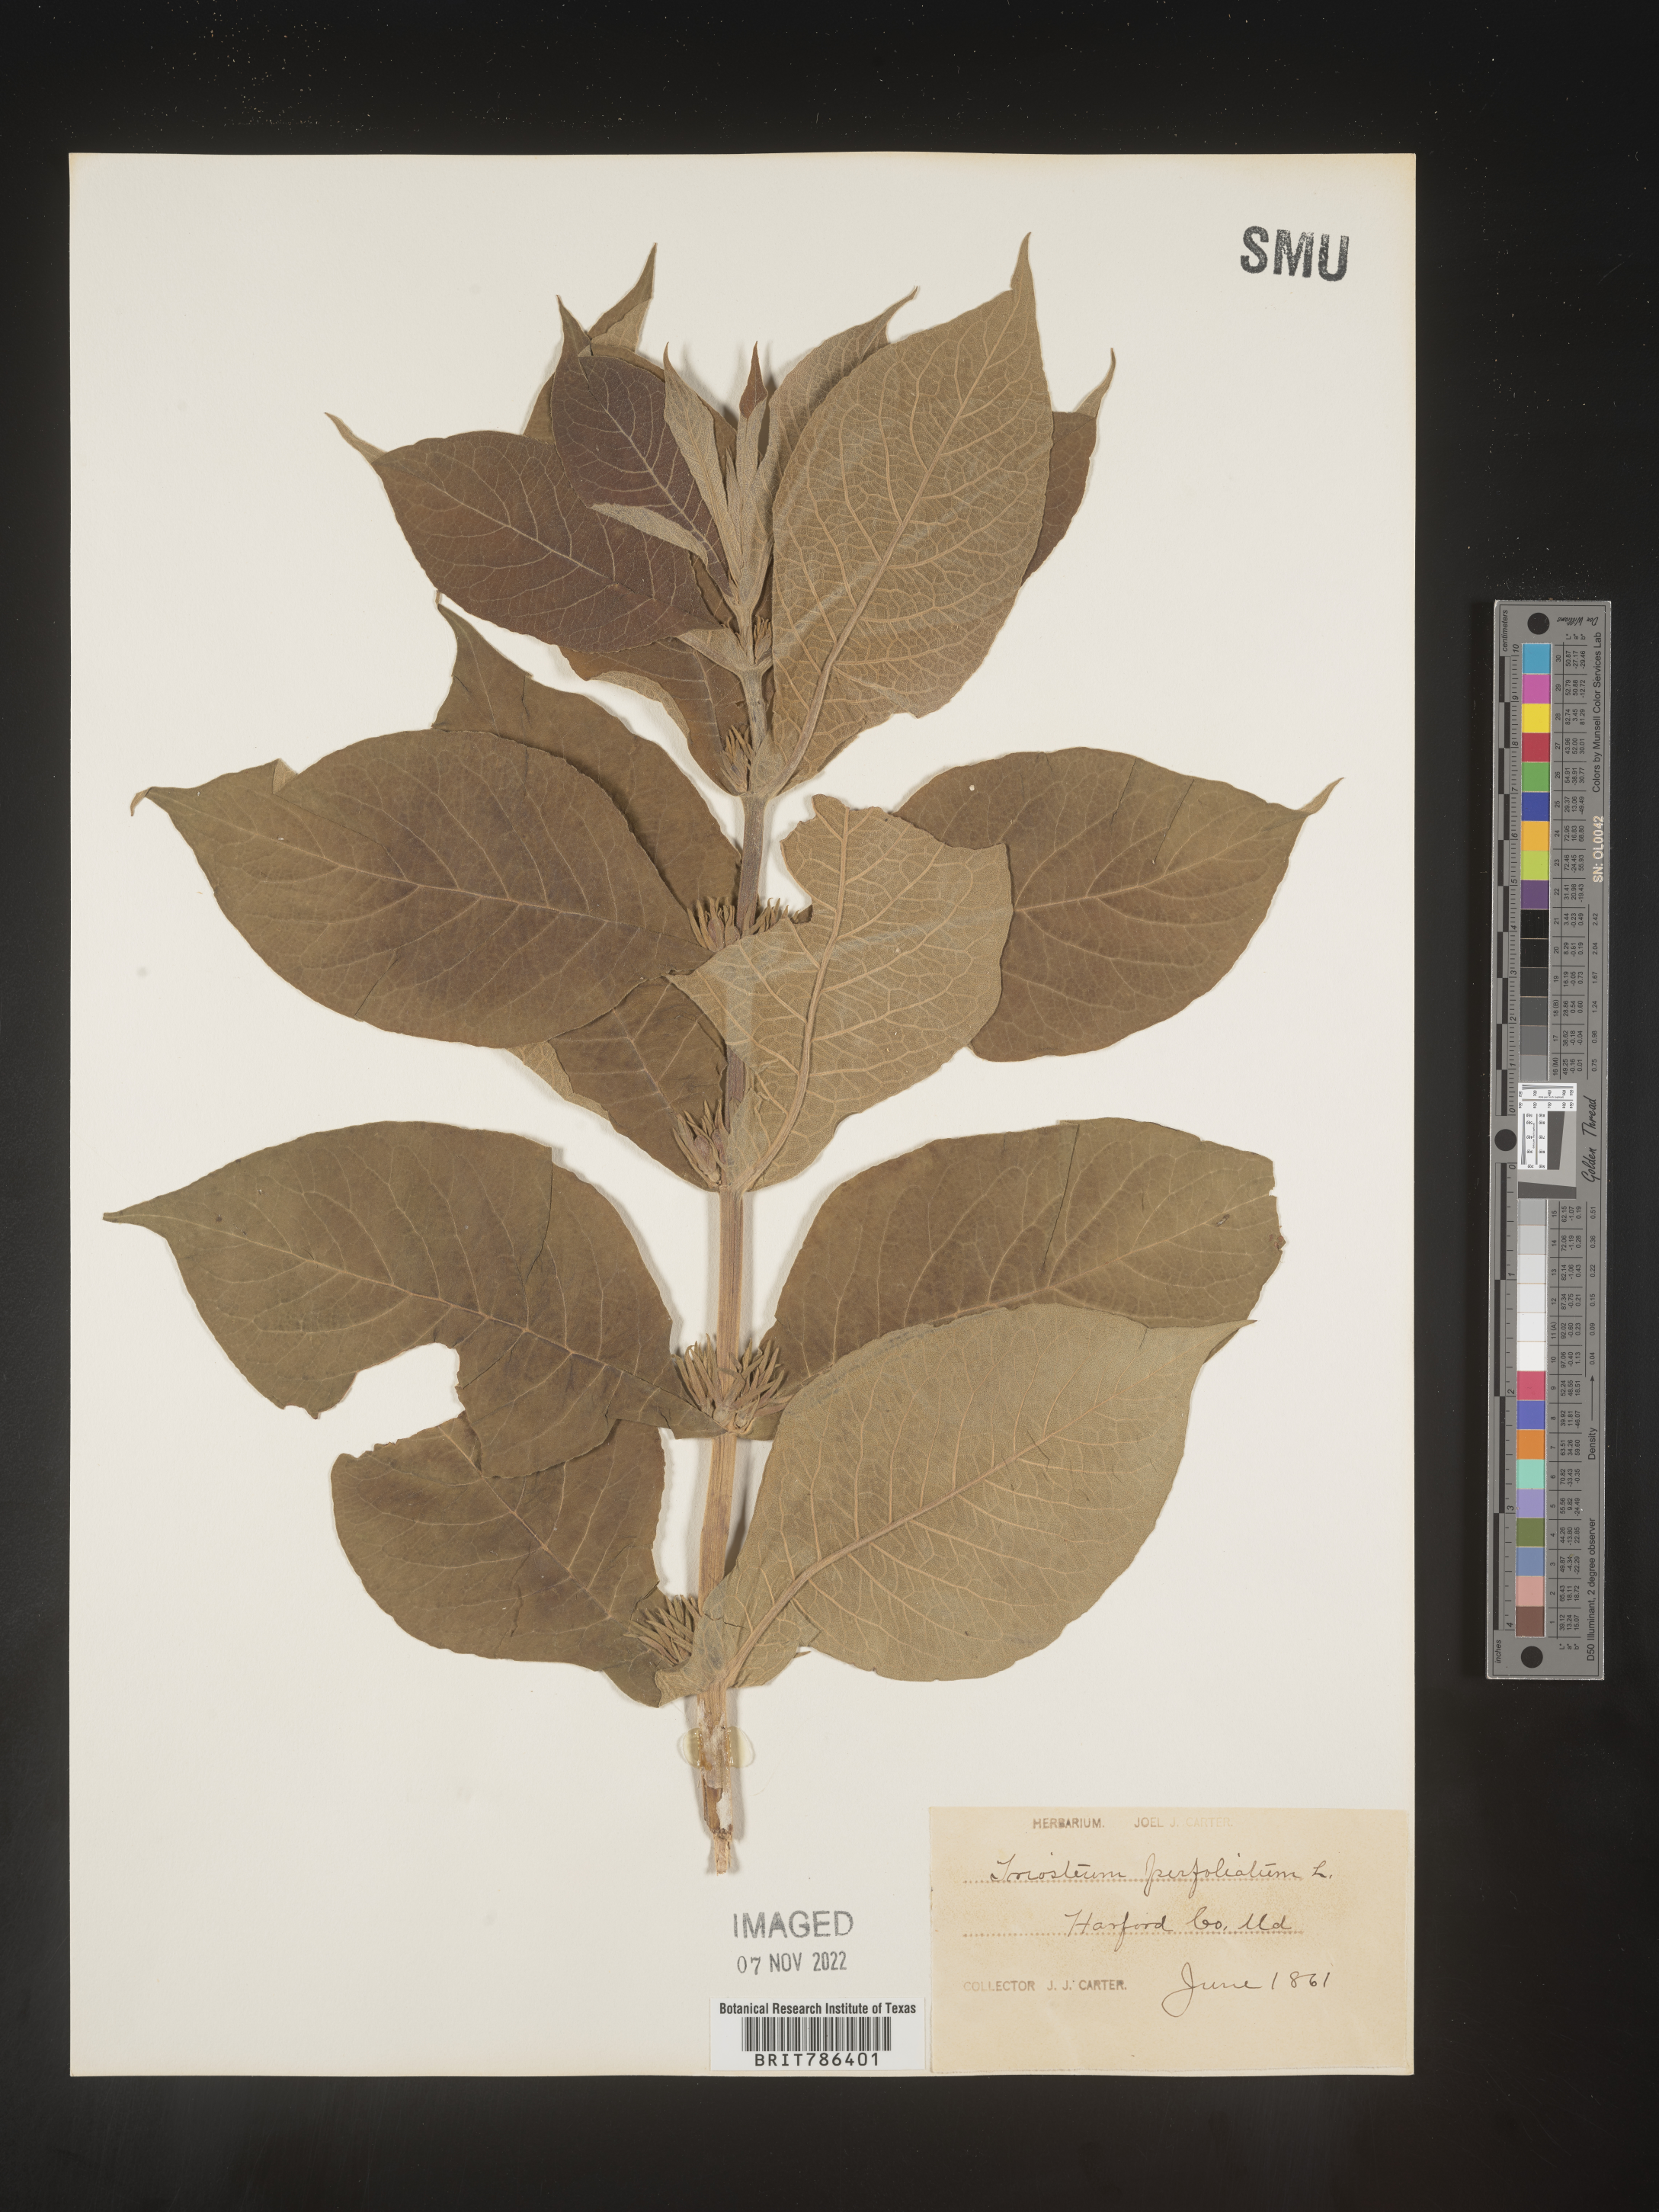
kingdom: Plantae
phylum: Tracheophyta
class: Magnoliopsida
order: Dipsacales
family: Caprifoliaceae
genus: Triosteum
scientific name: Triosteum perfoliatum
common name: Common horse-gentian
